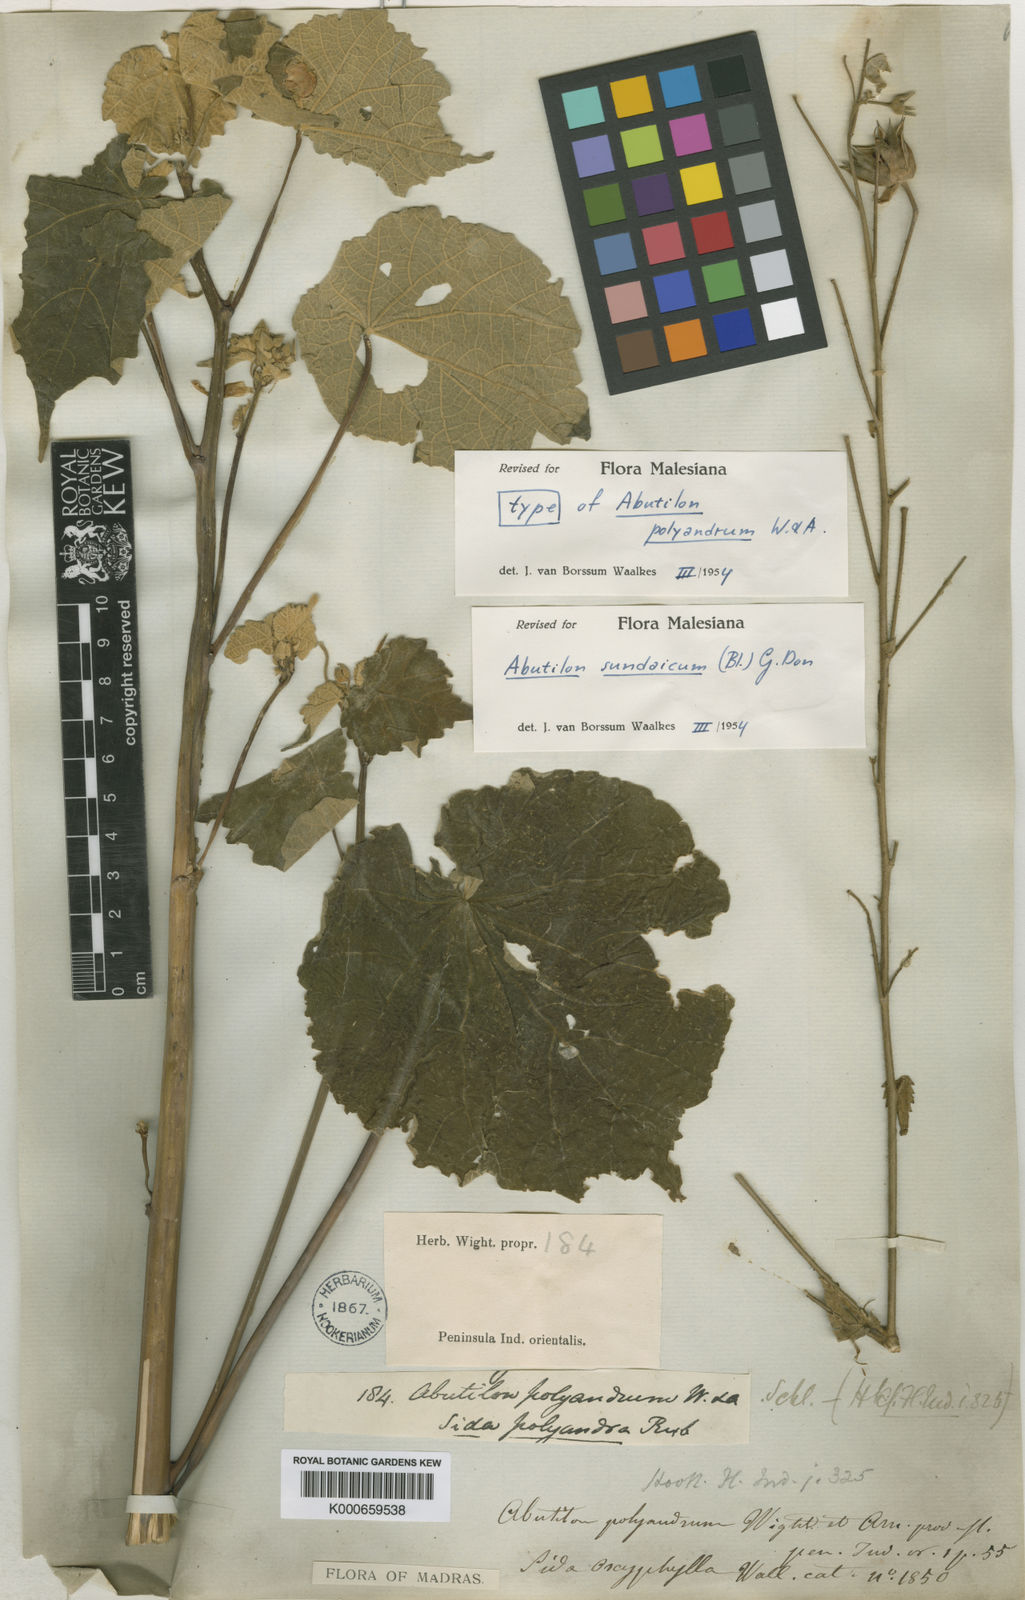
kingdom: Plantae
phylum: Tracheophyta
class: Magnoliopsida
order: Malvales
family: Malvaceae
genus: Abutilon
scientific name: Abutilon persicum
